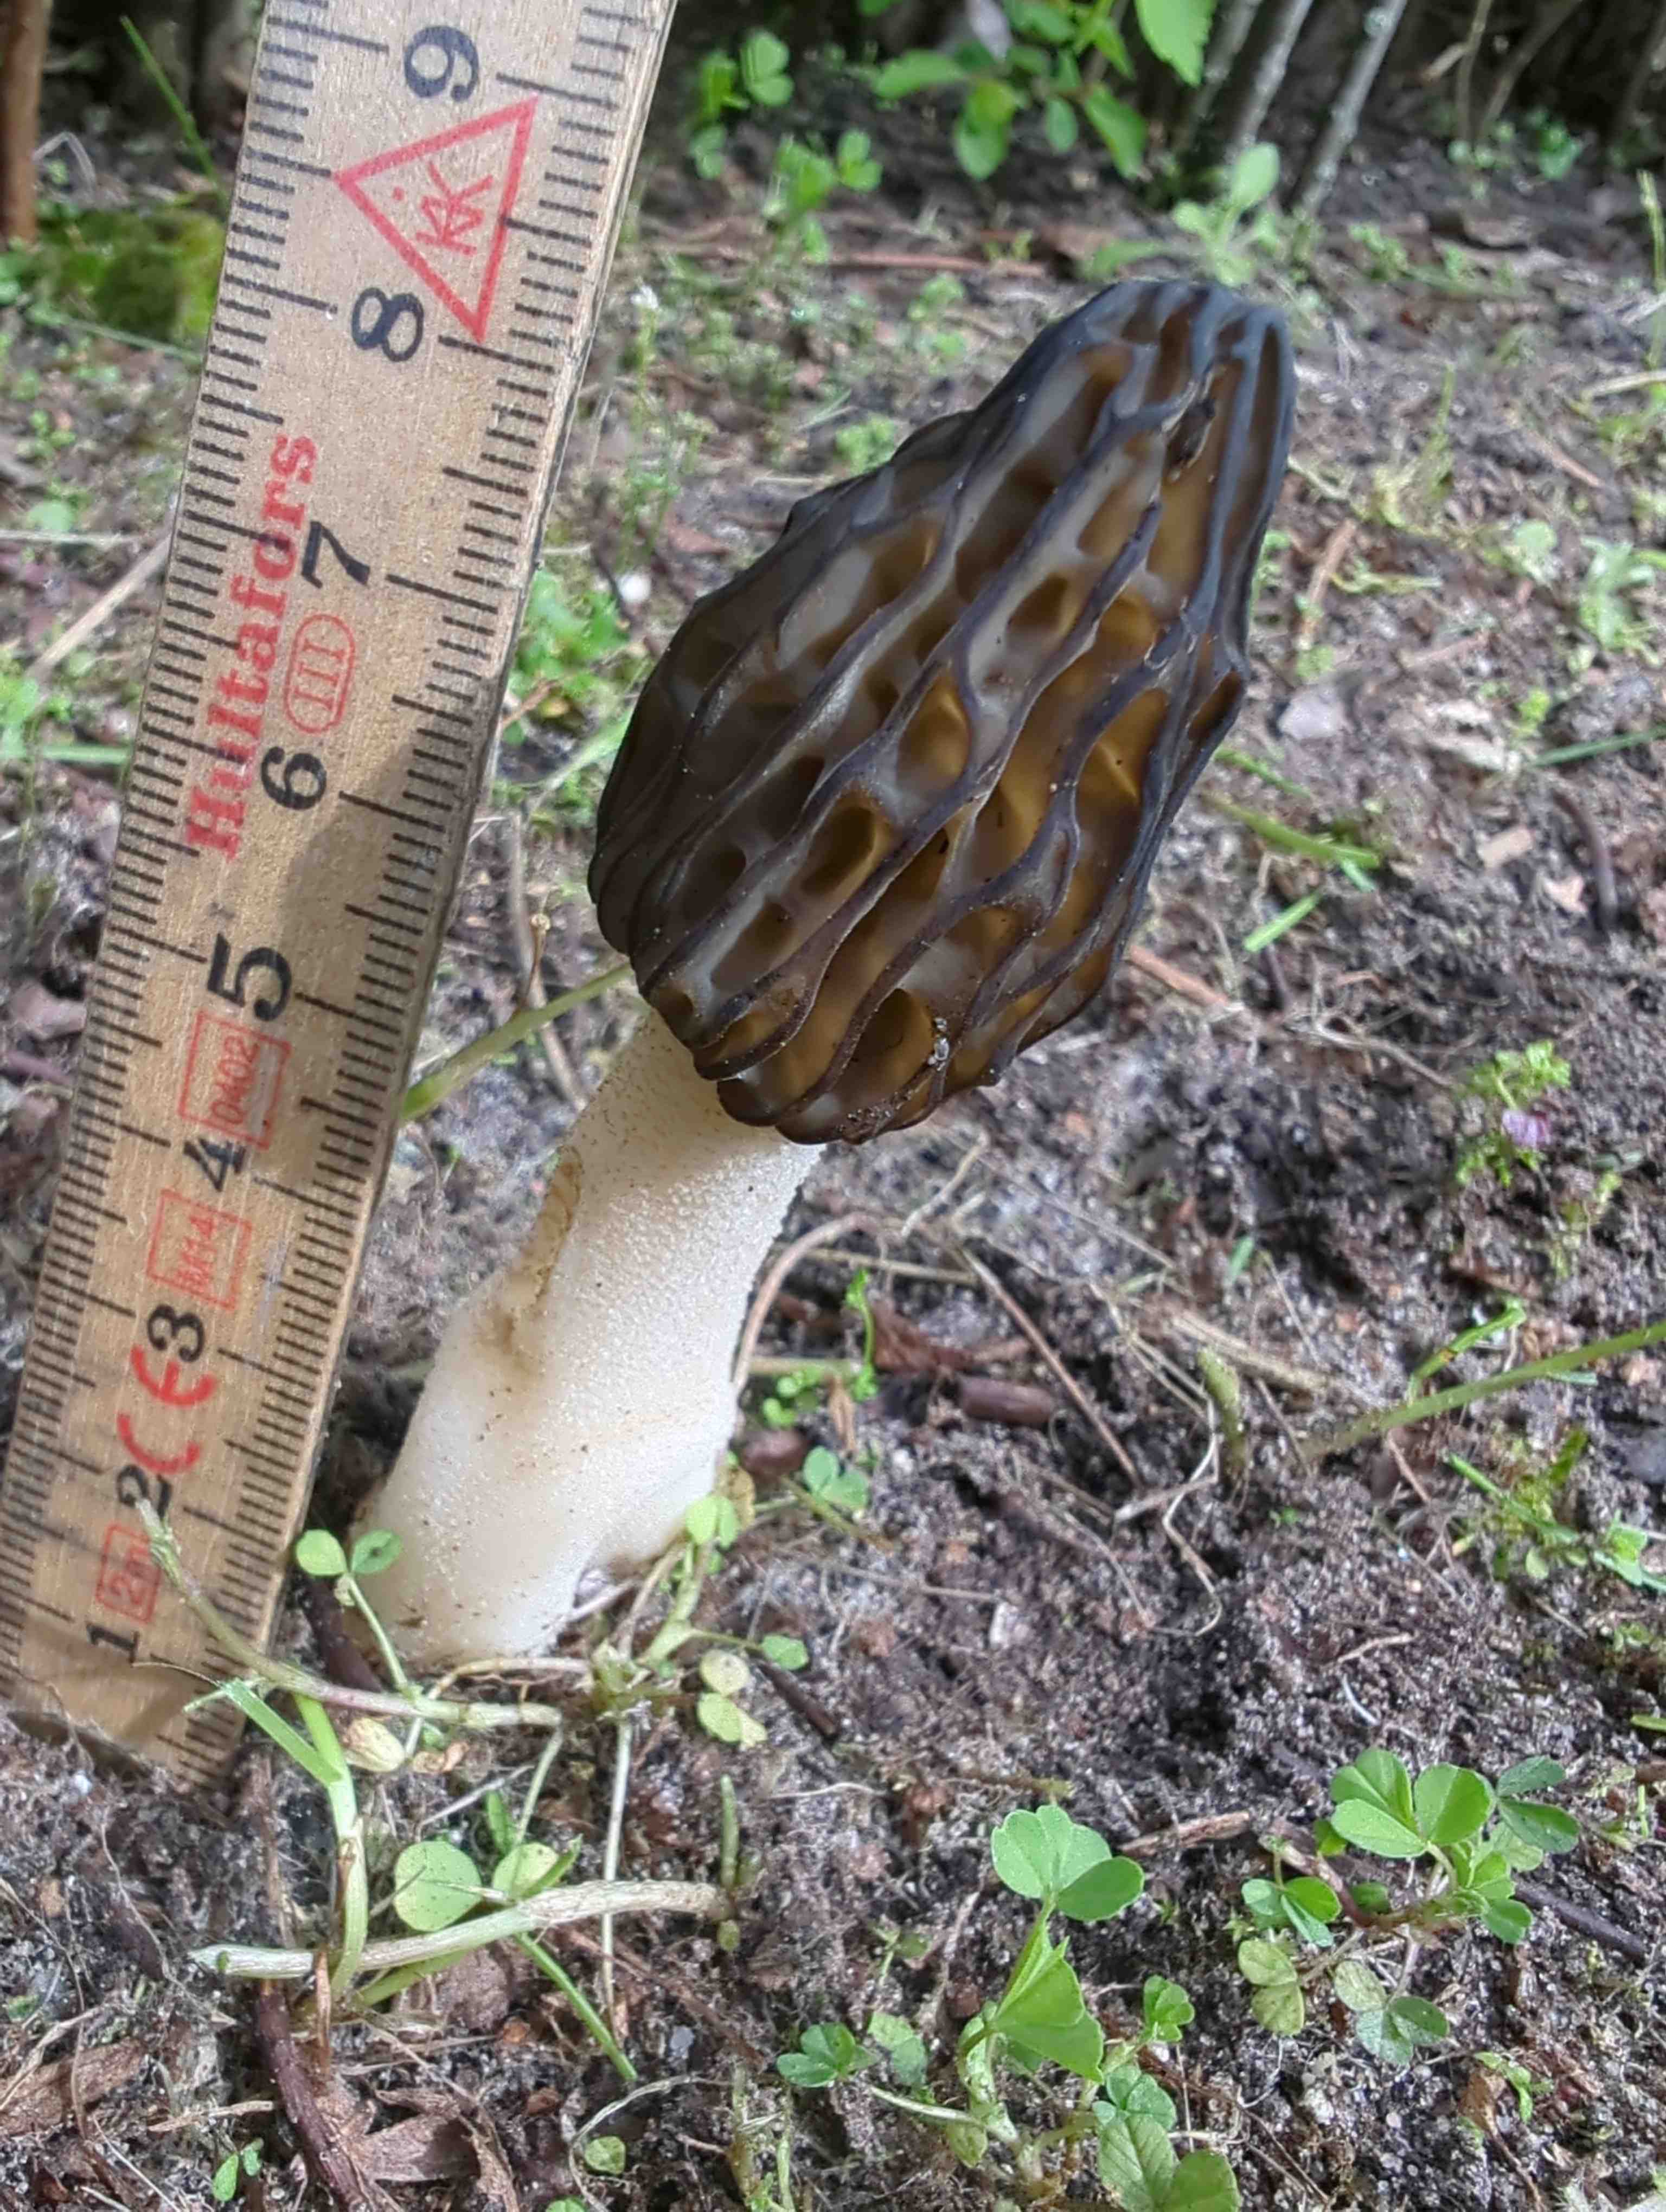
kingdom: Fungi
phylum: Ascomycota
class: Pezizomycetes
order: Pezizales
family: Morchellaceae
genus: Morchella
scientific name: Morchella semilibera
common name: hætte-morkel
